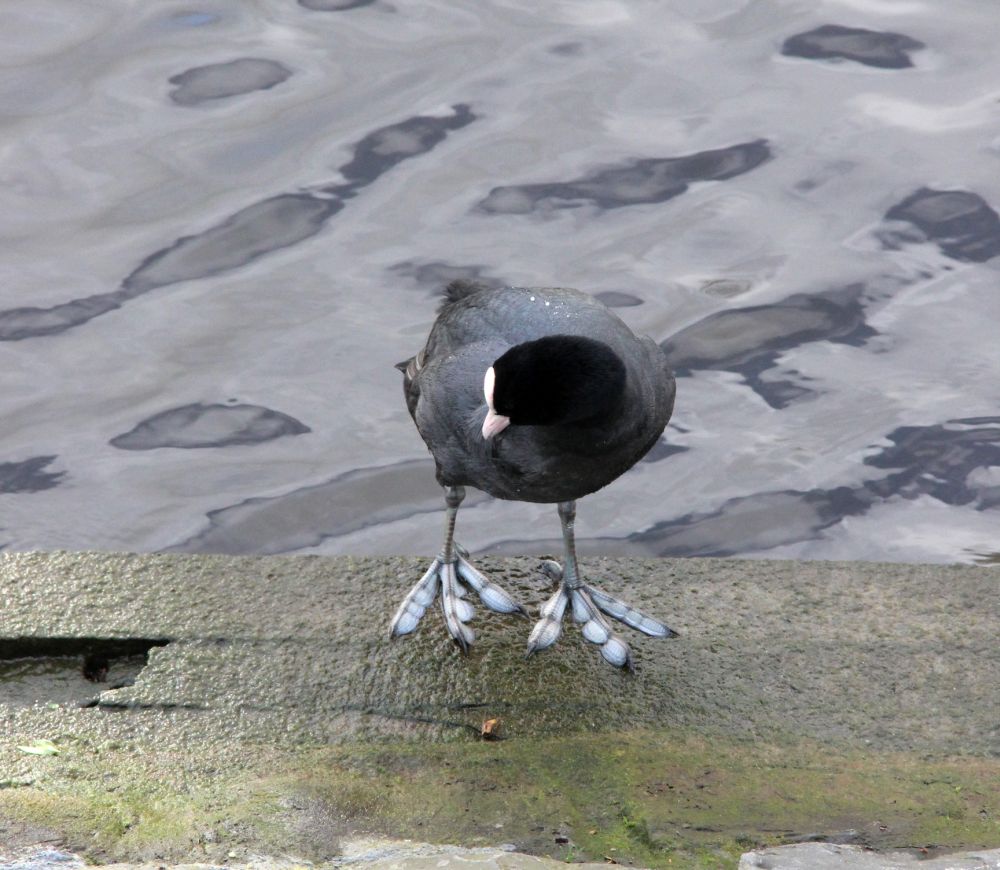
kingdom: Animalia
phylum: Chordata
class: Aves
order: Gruiformes
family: Rallidae
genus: Fulica
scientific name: Fulica atra
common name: Eurasian coot
